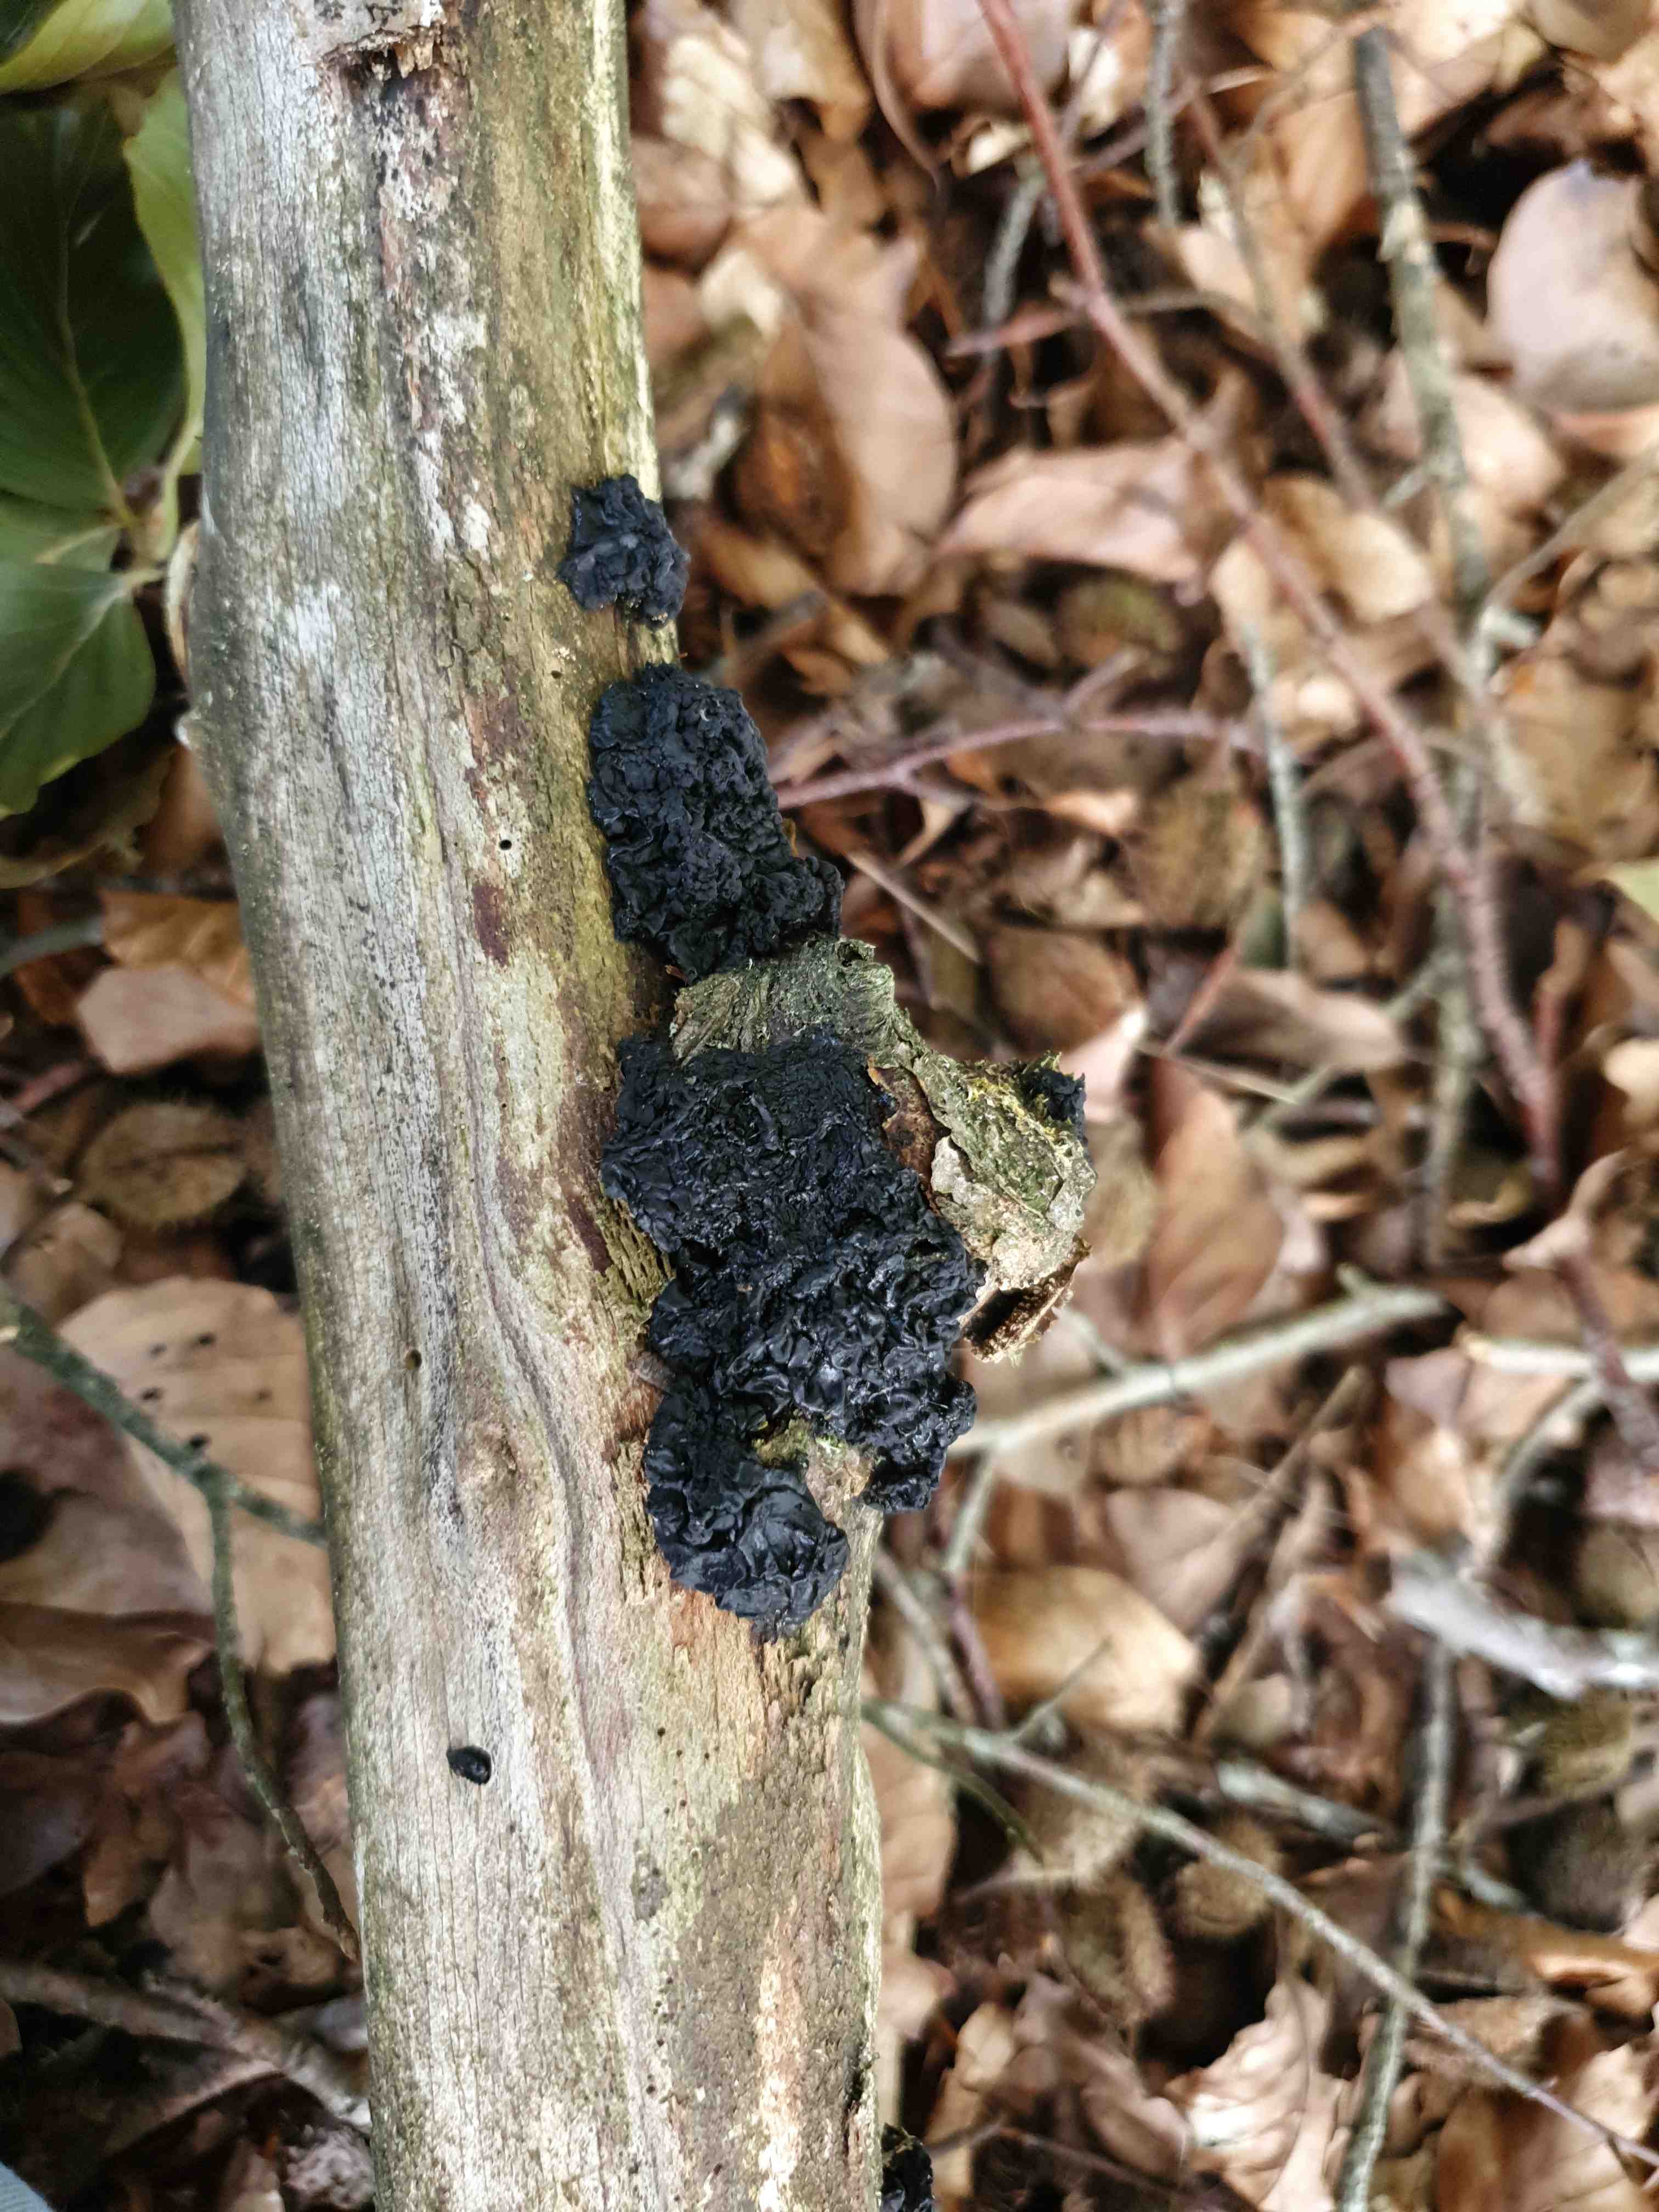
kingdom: Fungi
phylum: Basidiomycota
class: Agaricomycetes
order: Auriculariales
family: Auriculariaceae
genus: Exidia
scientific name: Exidia nigricans
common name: almindelig bævretop
